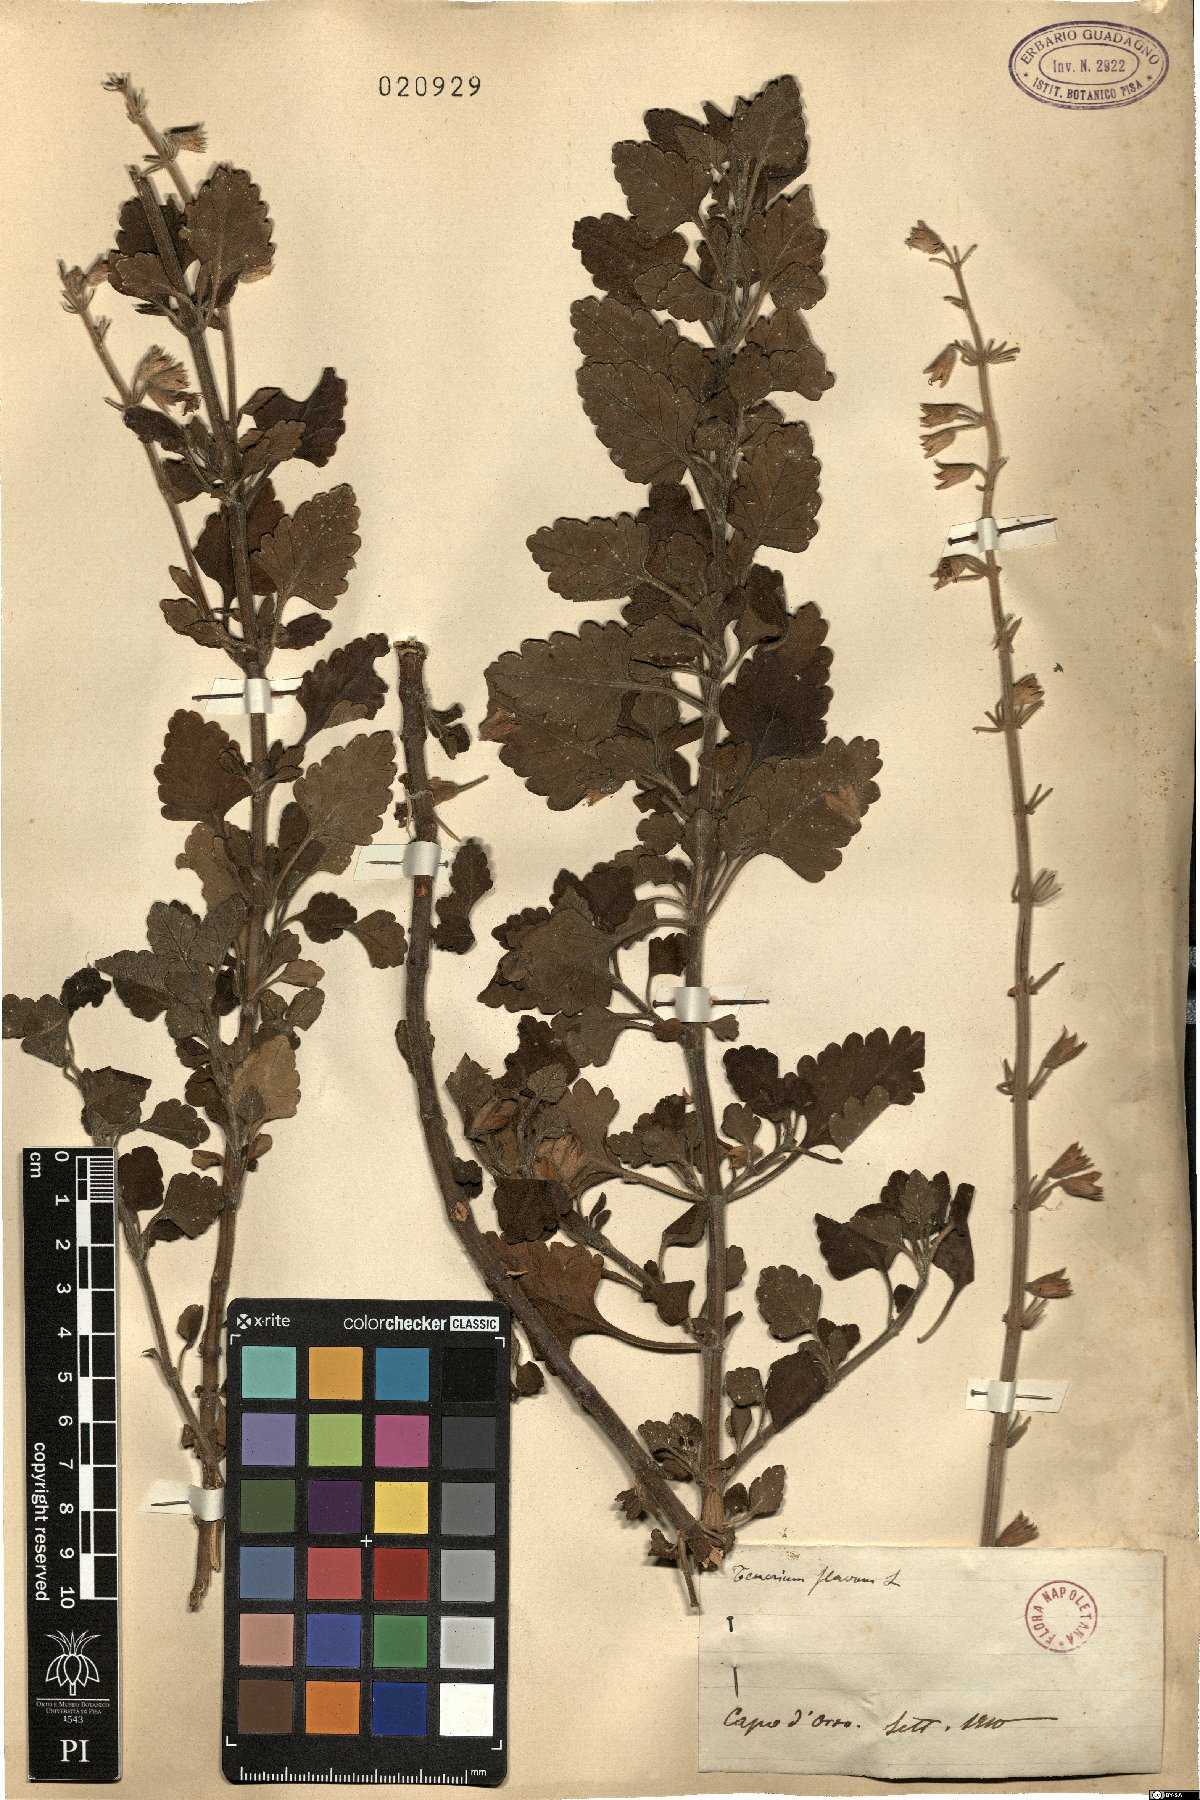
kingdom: Plantae
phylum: Tracheophyta
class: Magnoliopsida
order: Lamiales
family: Lamiaceae
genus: Teucrium
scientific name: Teucrium flavum
